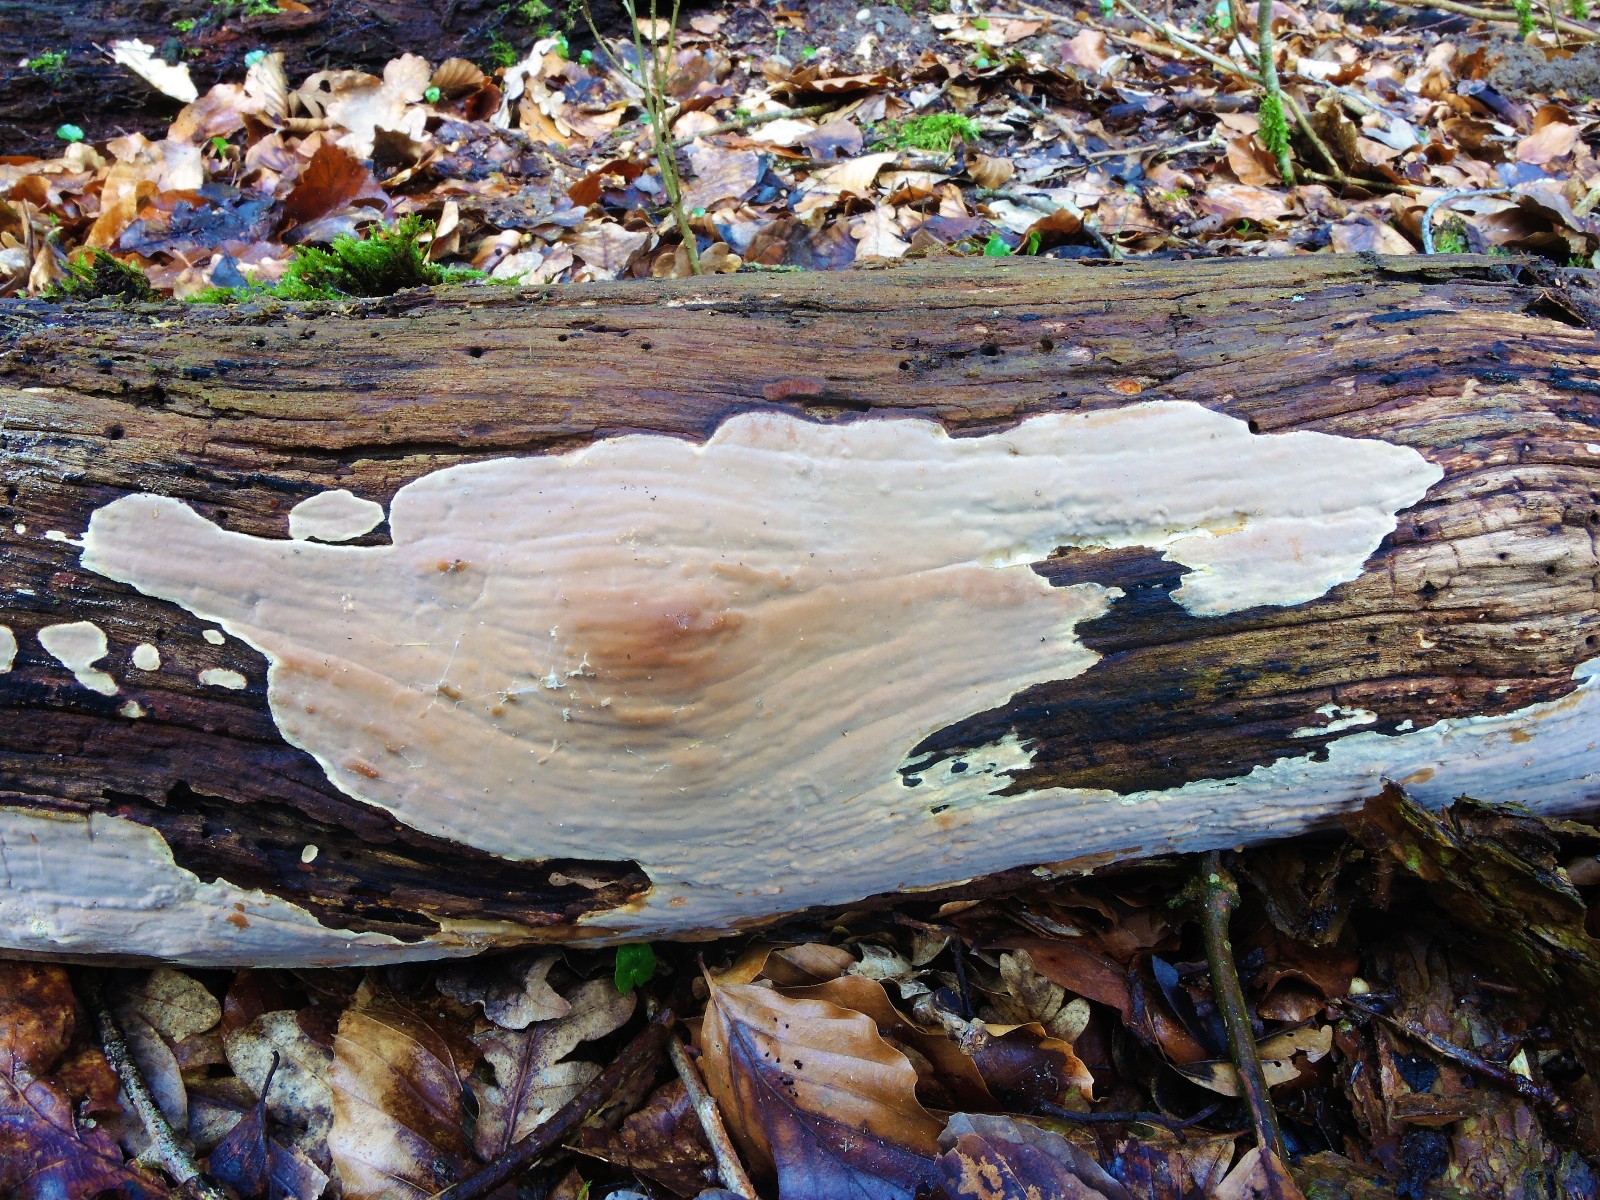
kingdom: Fungi
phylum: Basidiomycota
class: Agaricomycetes
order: Russulales
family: Peniophoraceae
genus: Scytinostroma
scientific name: Scytinostroma hemidichophyticum
